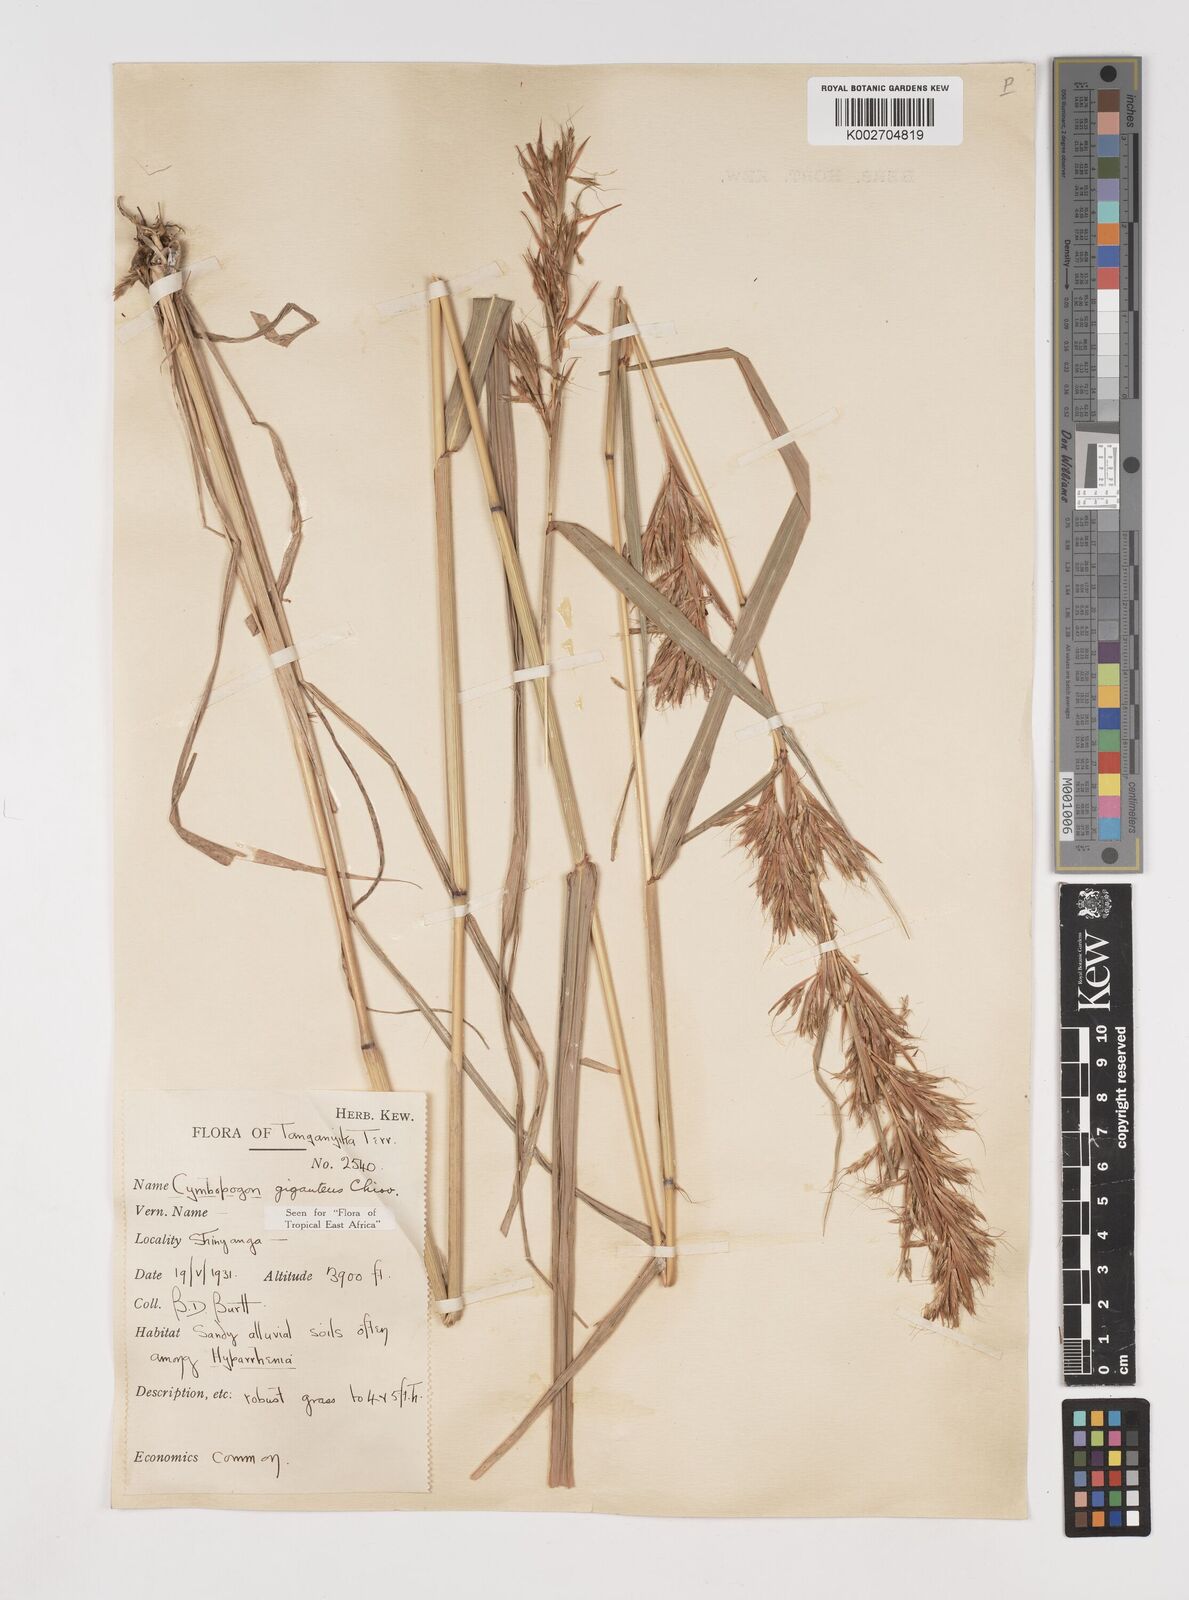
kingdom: Plantae
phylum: Tracheophyta
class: Liliopsida
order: Poales
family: Poaceae
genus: Cymbopogon
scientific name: Cymbopogon giganteus
